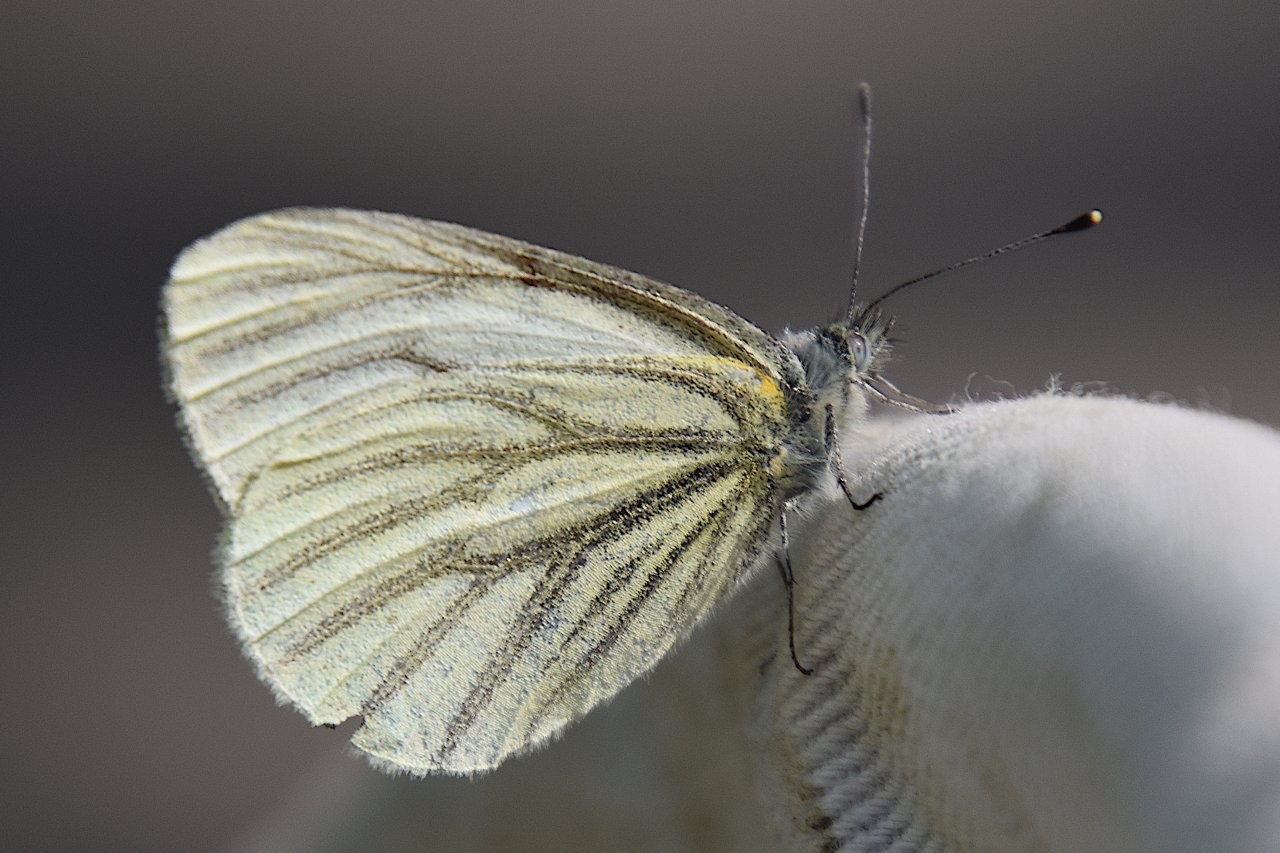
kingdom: Animalia
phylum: Arthropoda
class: Insecta
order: Lepidoptera
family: Pieridae
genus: Pieris
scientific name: Pieris marginalis
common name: Margined White
